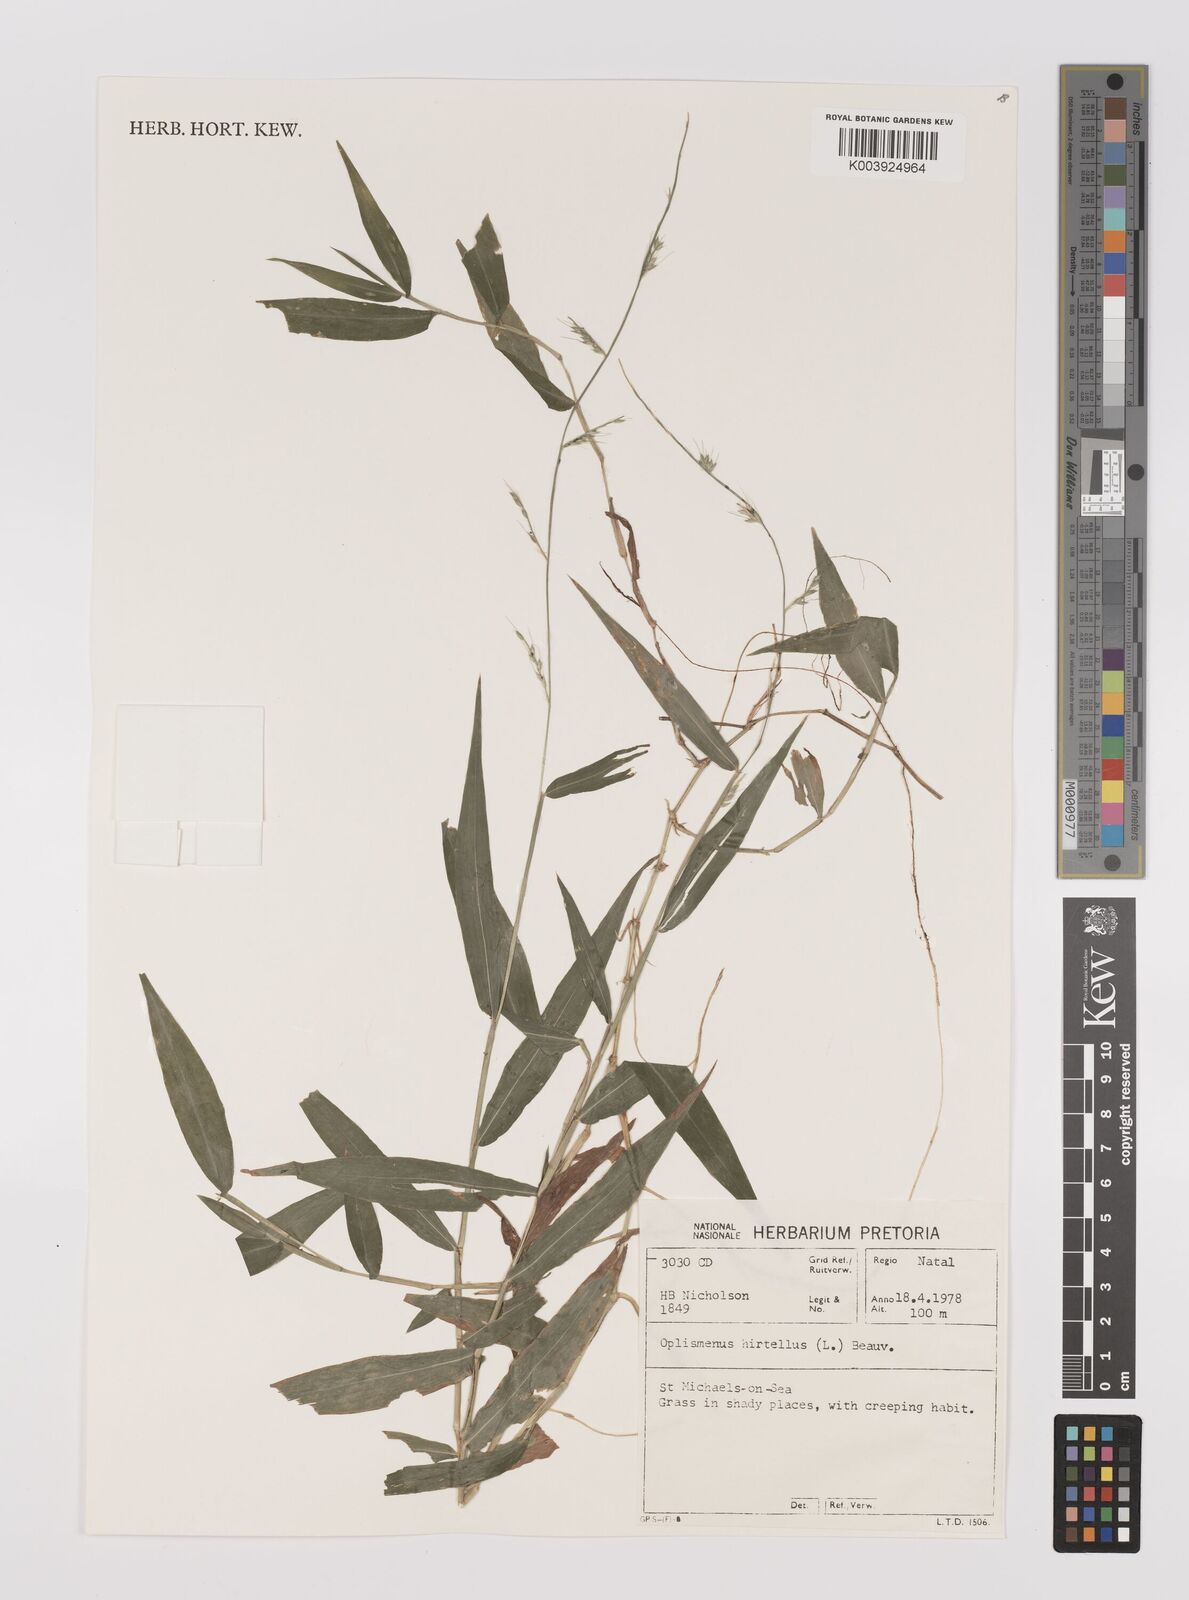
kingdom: Plantae
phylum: Tracheophyta
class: Liliopsida
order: Poales
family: Poaceae
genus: Oplismenus
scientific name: Oplismenus hirtellus
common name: Basketgrass
